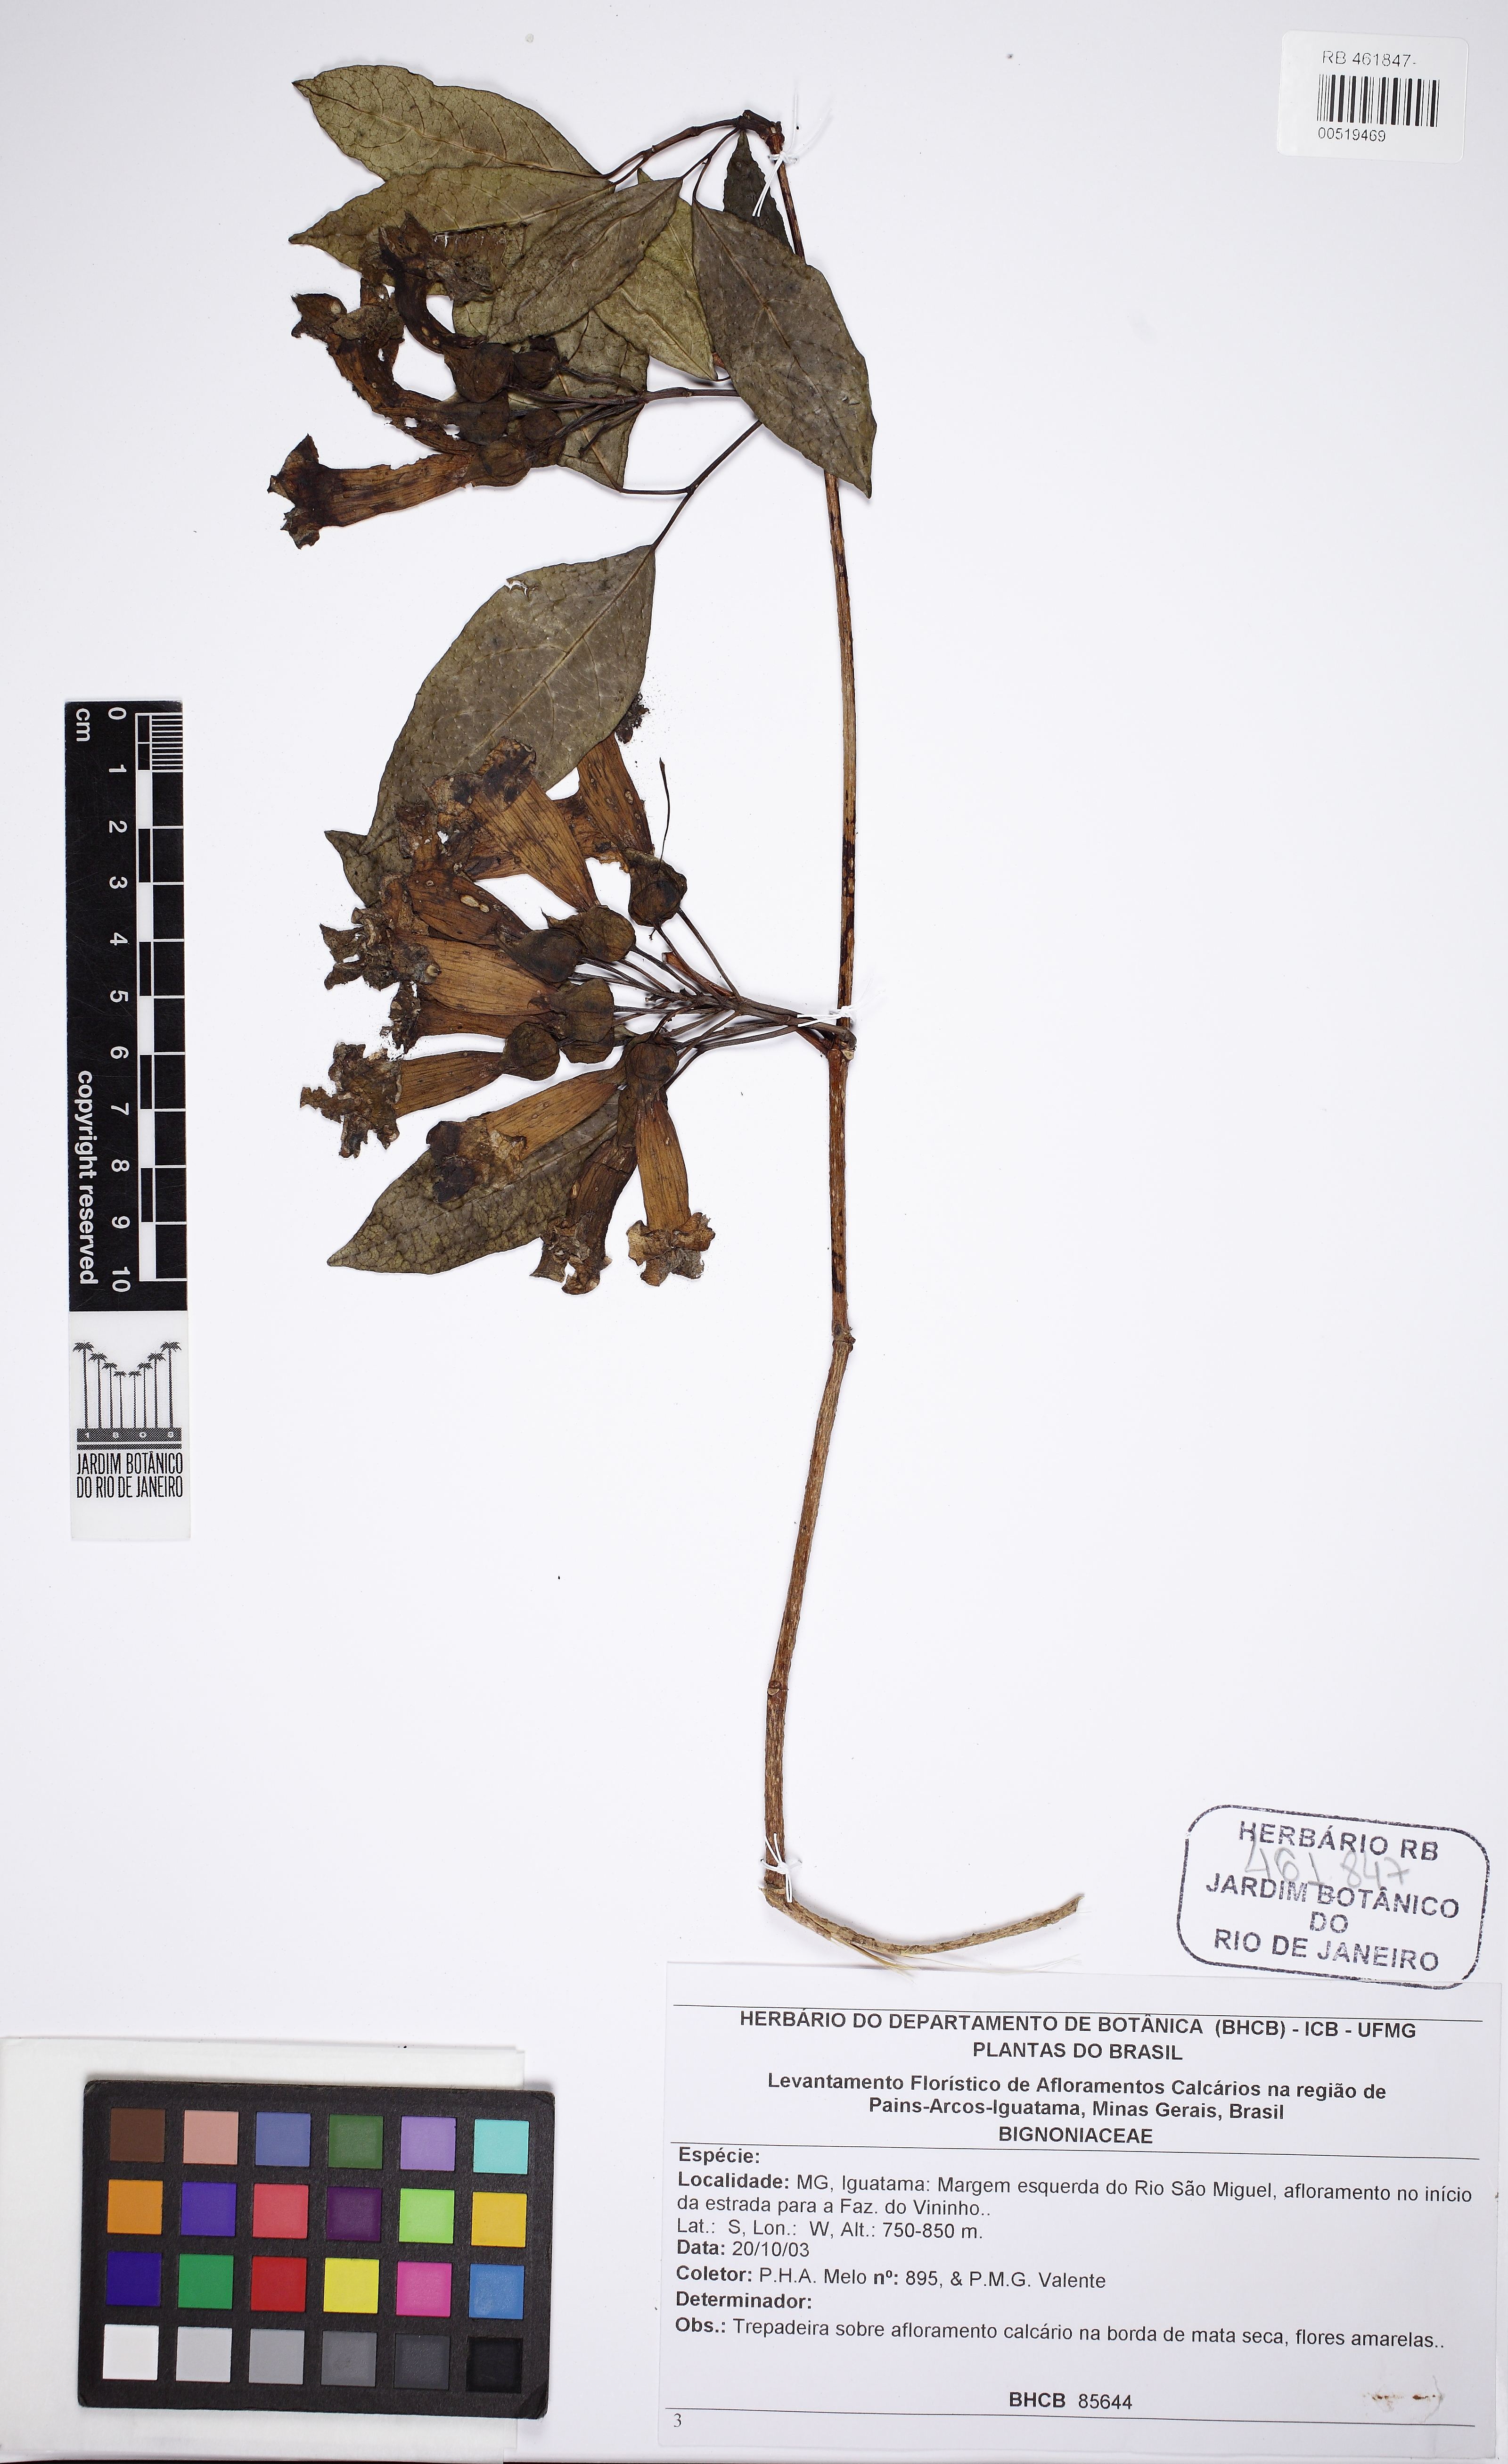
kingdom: Plantae
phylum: Tracheophyta
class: Magnoliopsida
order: Lamiales
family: Bignoniaceae
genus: Stizophyllum
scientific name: Stizophyllum perforatum
